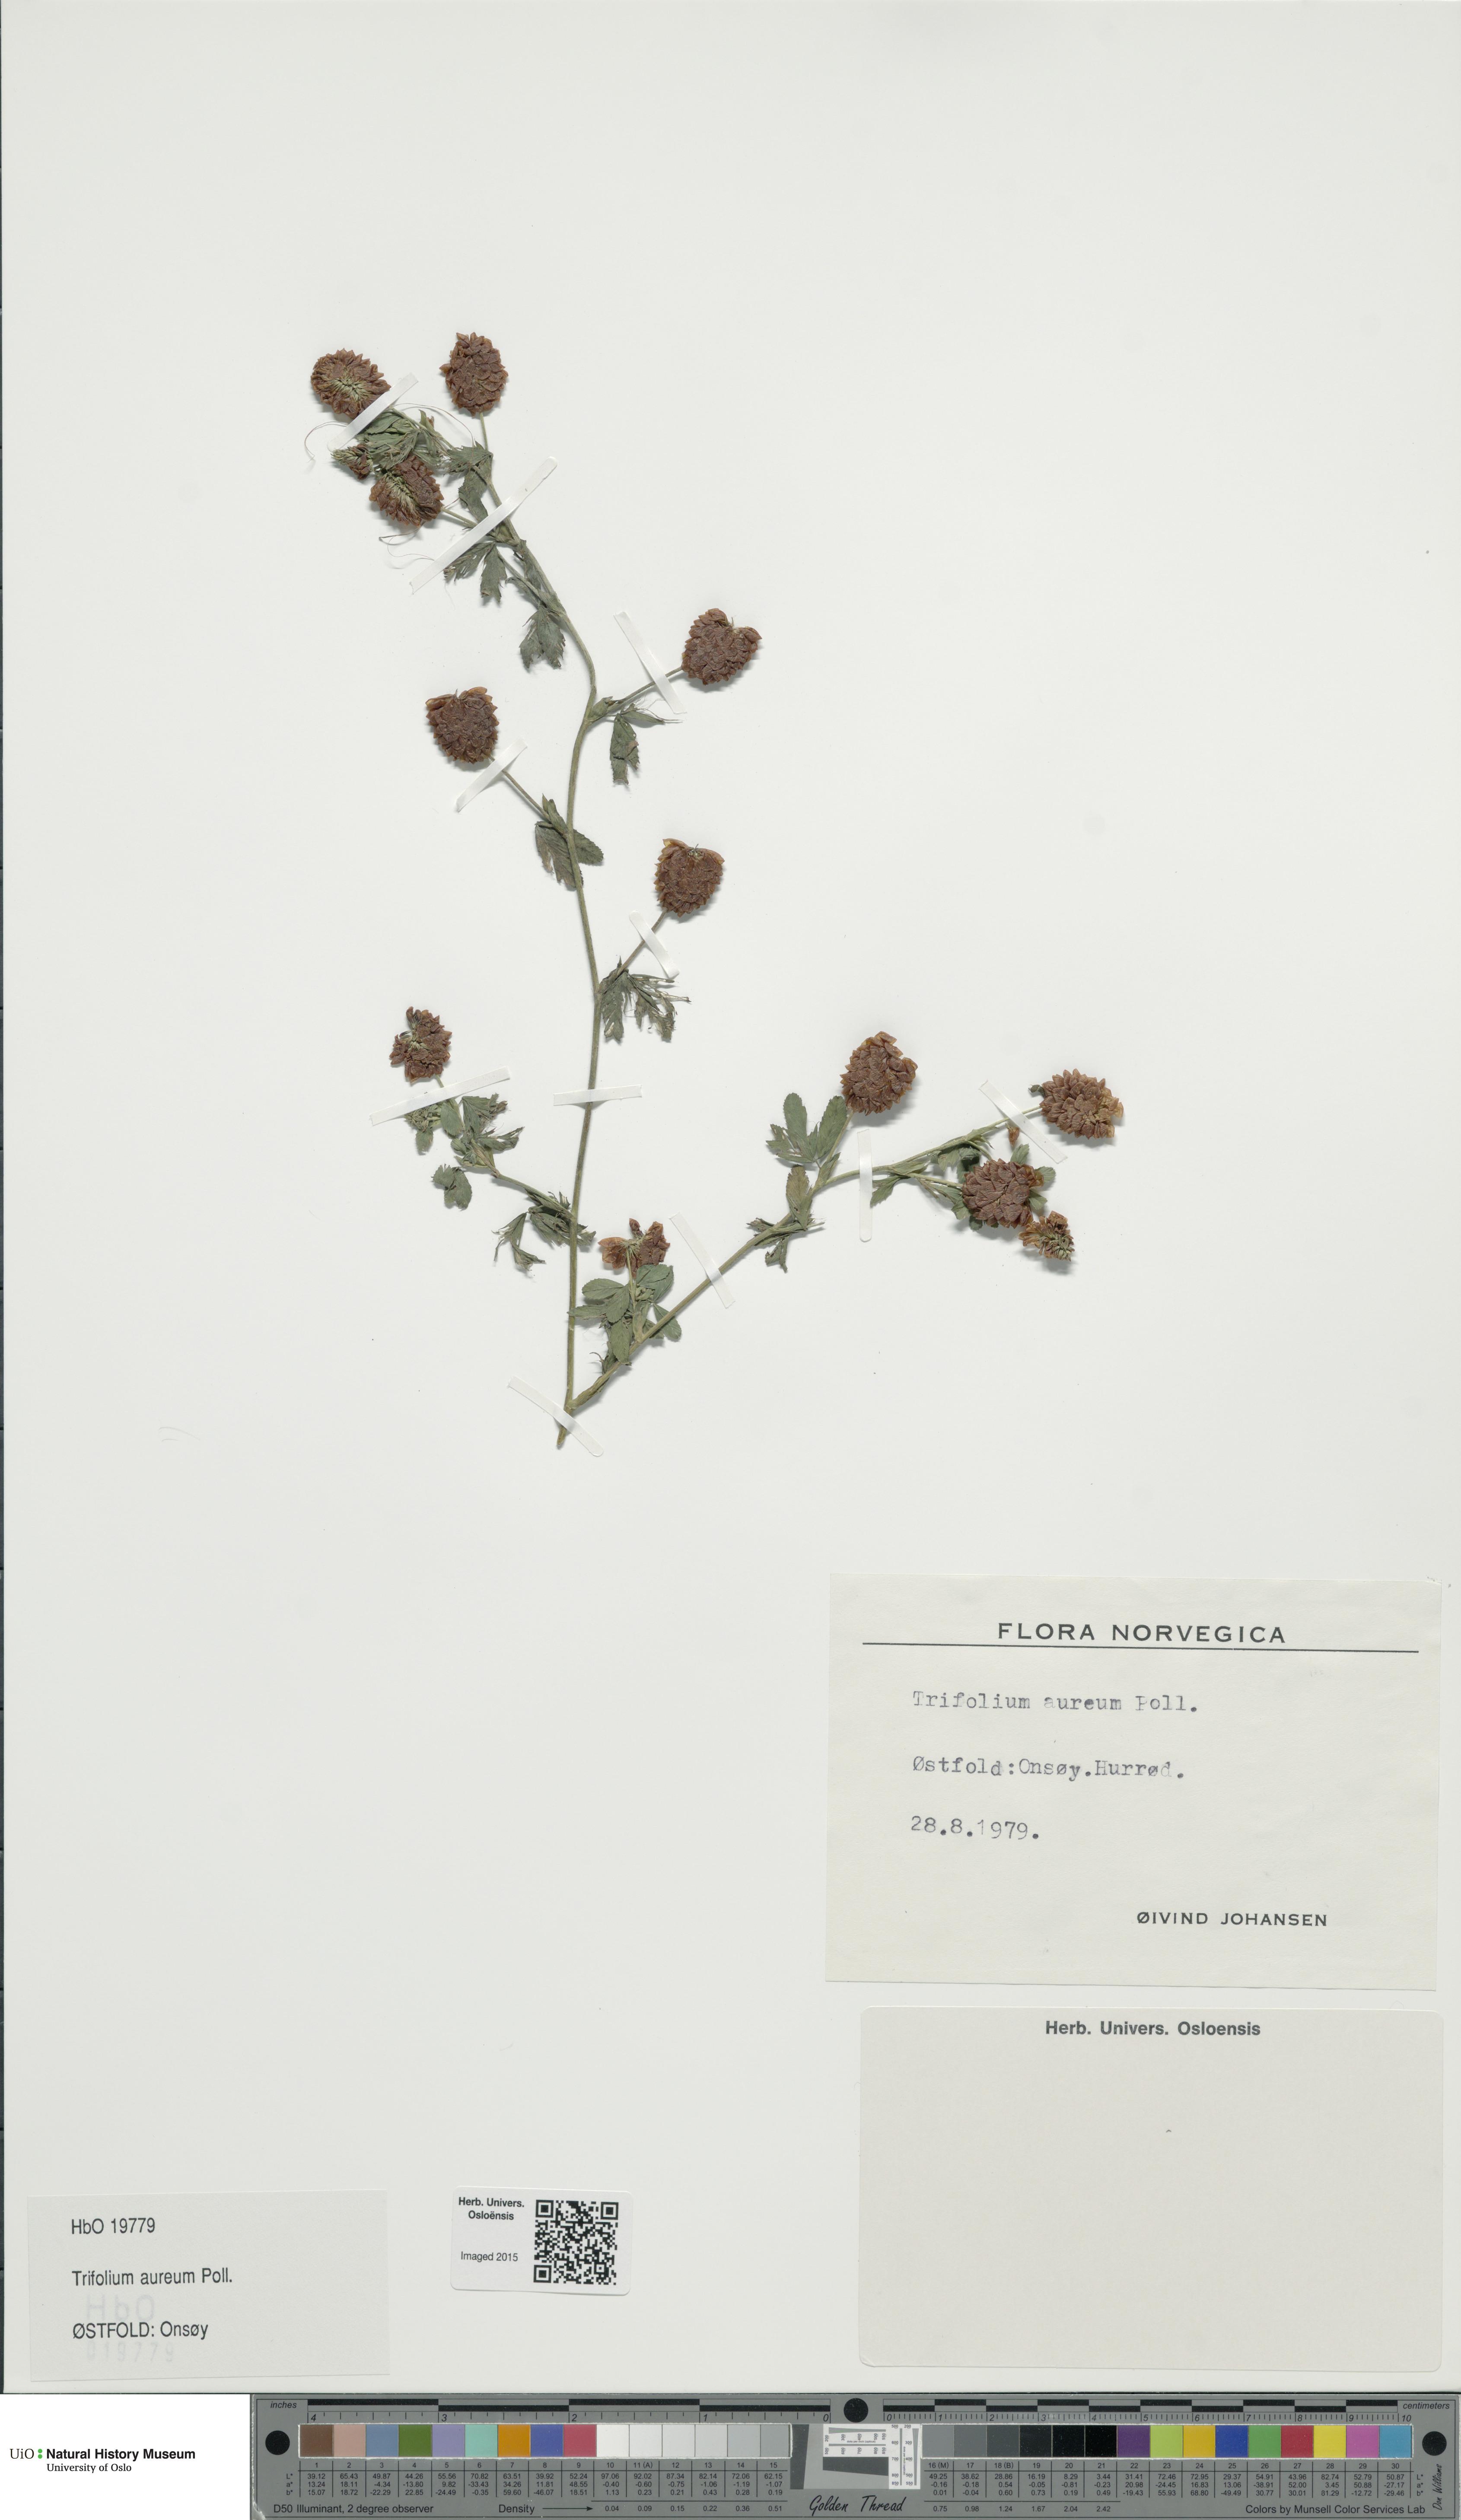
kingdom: Plantae
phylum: Tracheophyta
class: Magnoliopsida
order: Fabales
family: Fabaceae
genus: Trifolium
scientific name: Trifolium aureum
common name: Golden clover
